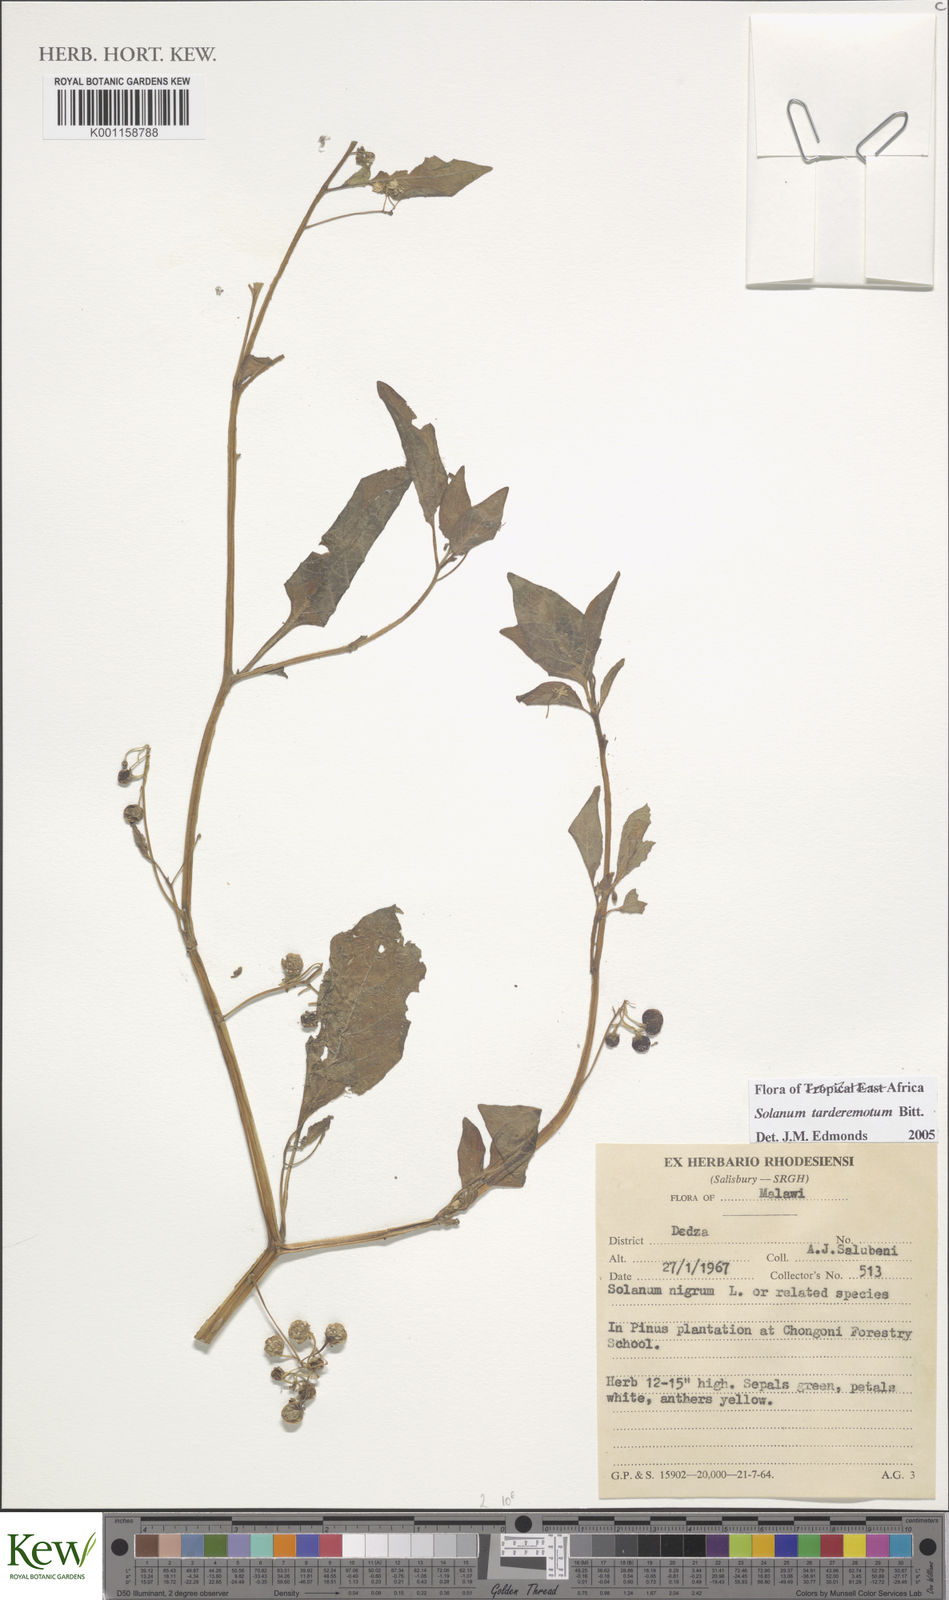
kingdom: Plantae
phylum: Tracheophyta
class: Magnoliopsida
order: Solanales
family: Solanaceae
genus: Solanum
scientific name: Solanum tarderemotum
